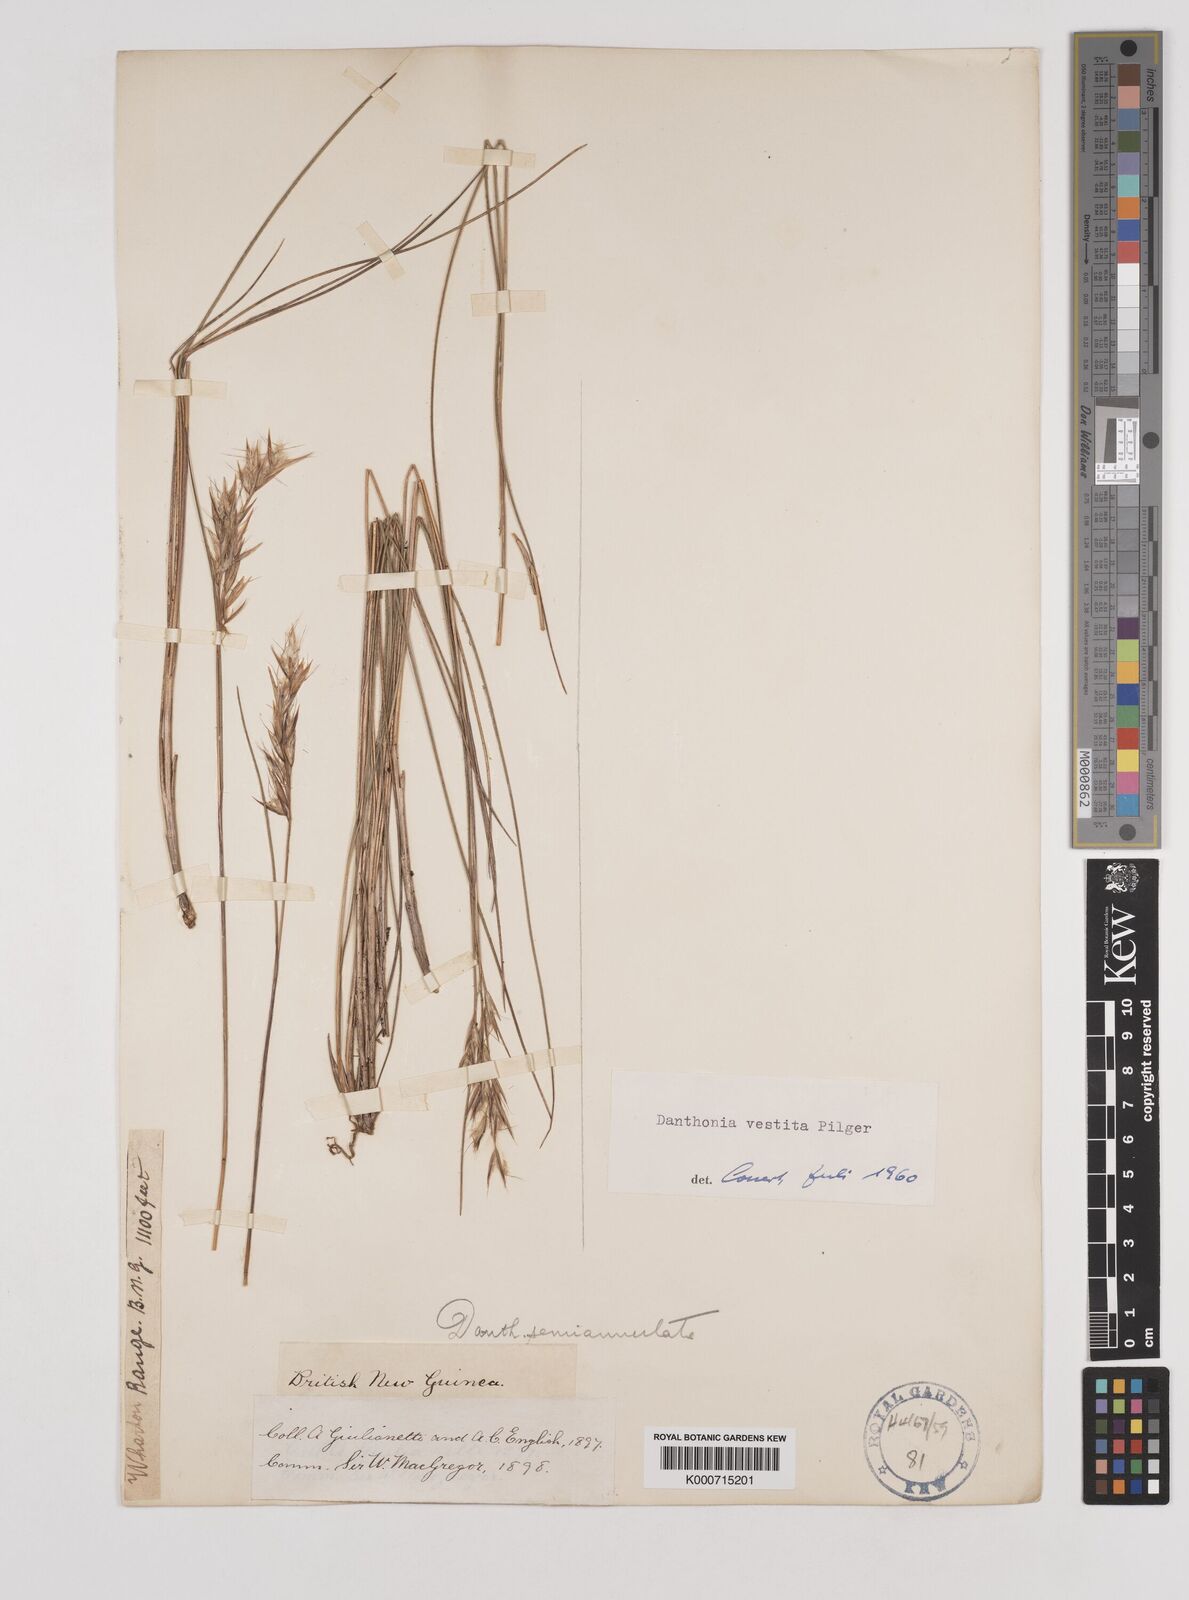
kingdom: Plantae
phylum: Tracheophyta
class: Liliopsida
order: Poales
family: Poaceae
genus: Rytidosperma
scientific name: Rytidosperma vestitum
